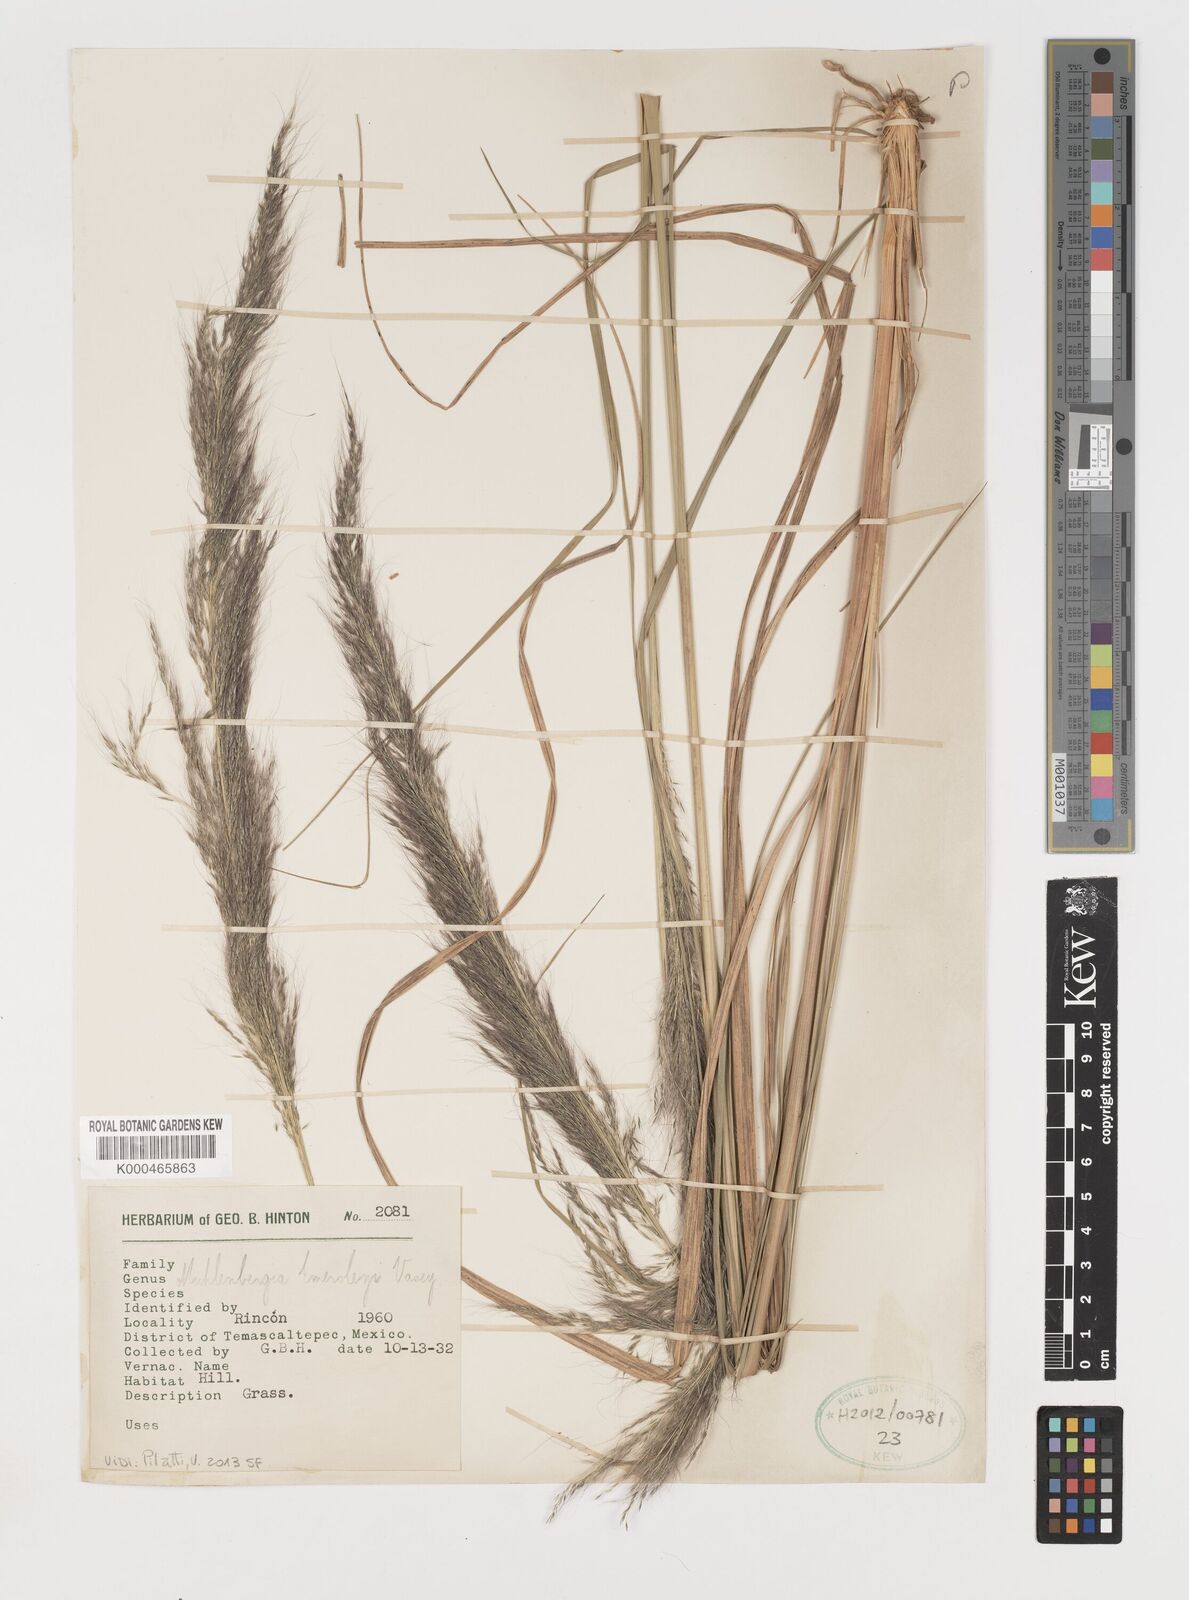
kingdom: Plantae
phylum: Tracheophyta
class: Liliopsida
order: Poales
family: Poaceae
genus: Muhlenbergia
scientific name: Muhlenbergia emersleyi
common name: Bull grass
